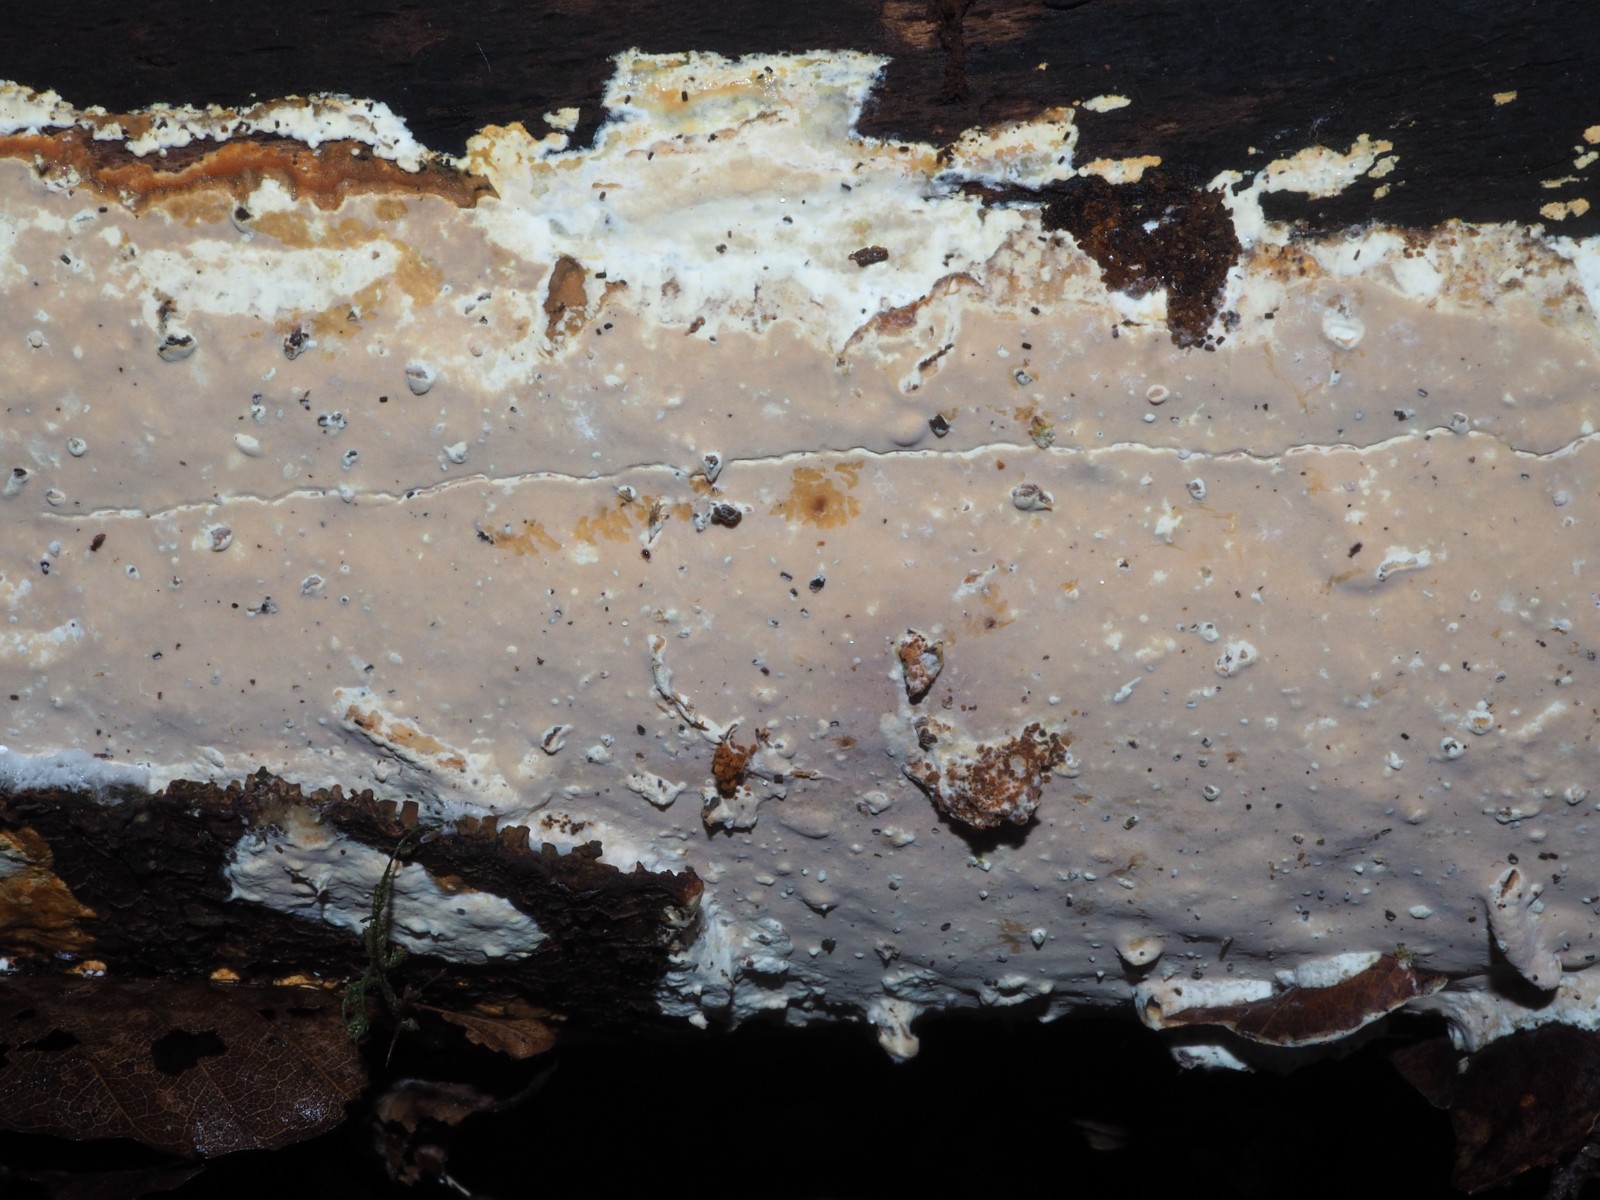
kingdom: Fungi
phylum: Basidiomycota
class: Agaricomycetes
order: Russulales
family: Peniophoraceae
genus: Scytinostroma
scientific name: Scytinostroma hemidichophyticum
